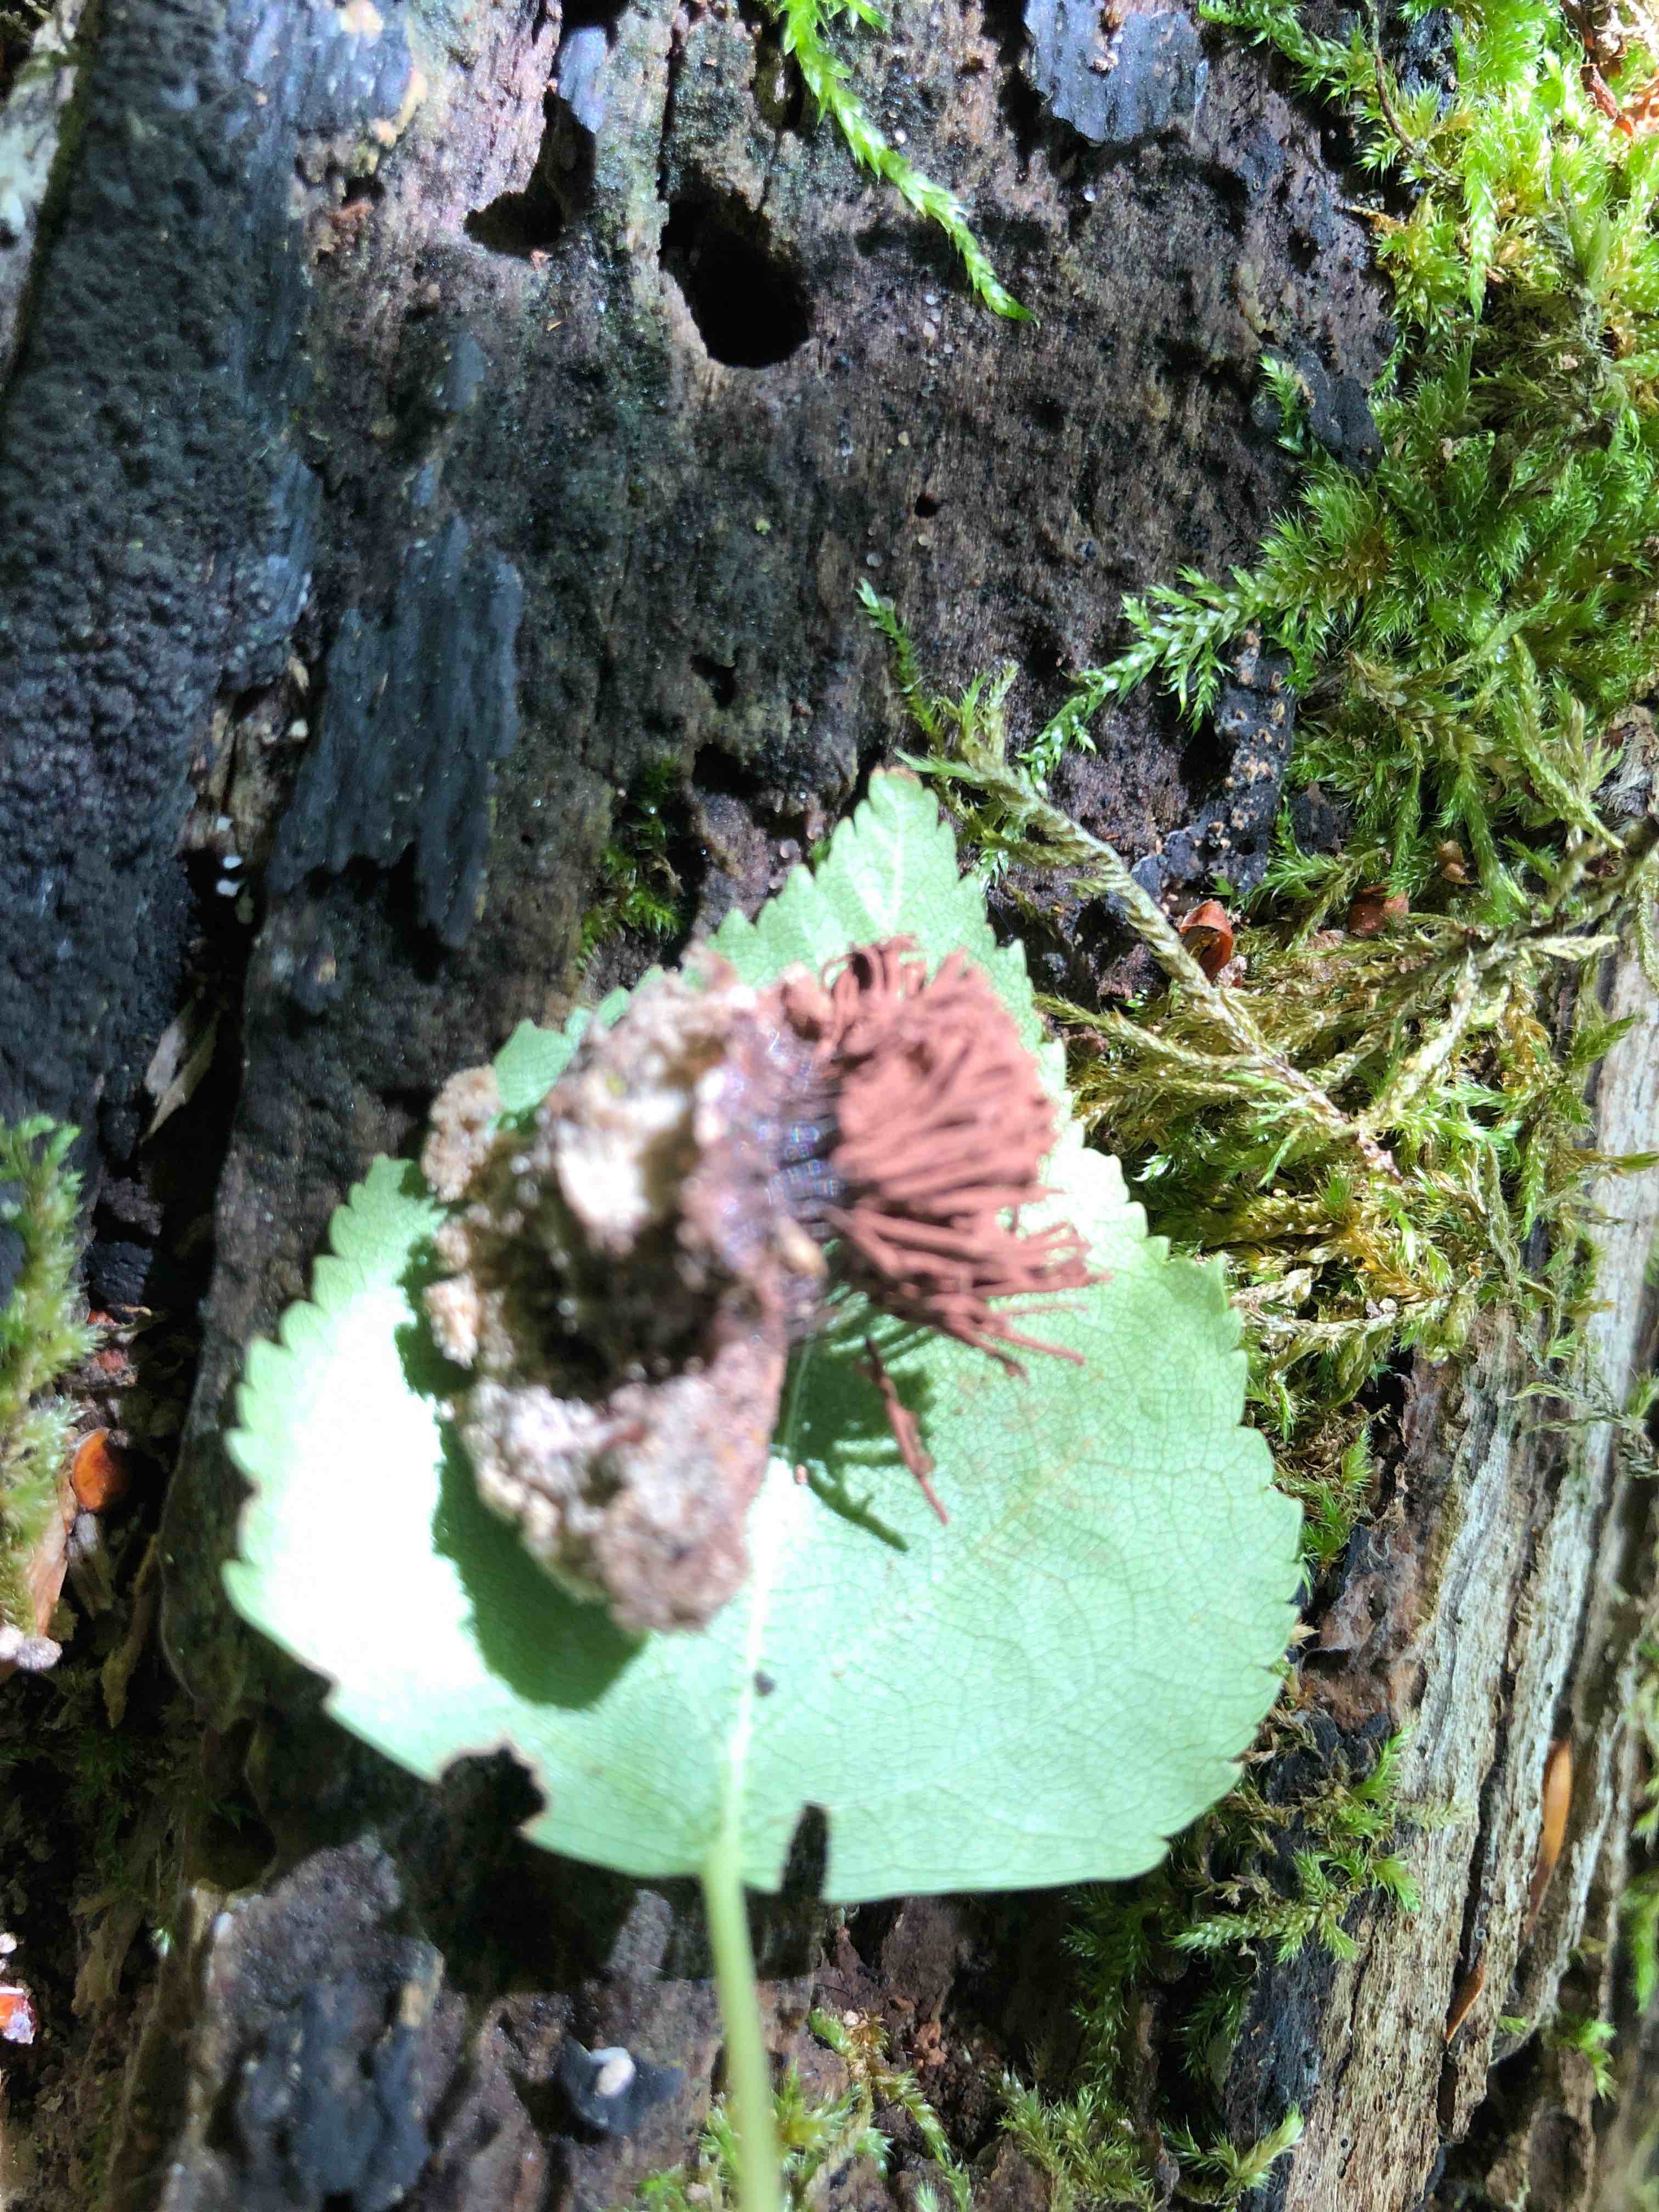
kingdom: Protozoa
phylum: Mycetozoa
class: Myxomycetes
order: Stemonitidales
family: Stemonitidaceae
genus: Stemonitis
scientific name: Stemonitis
